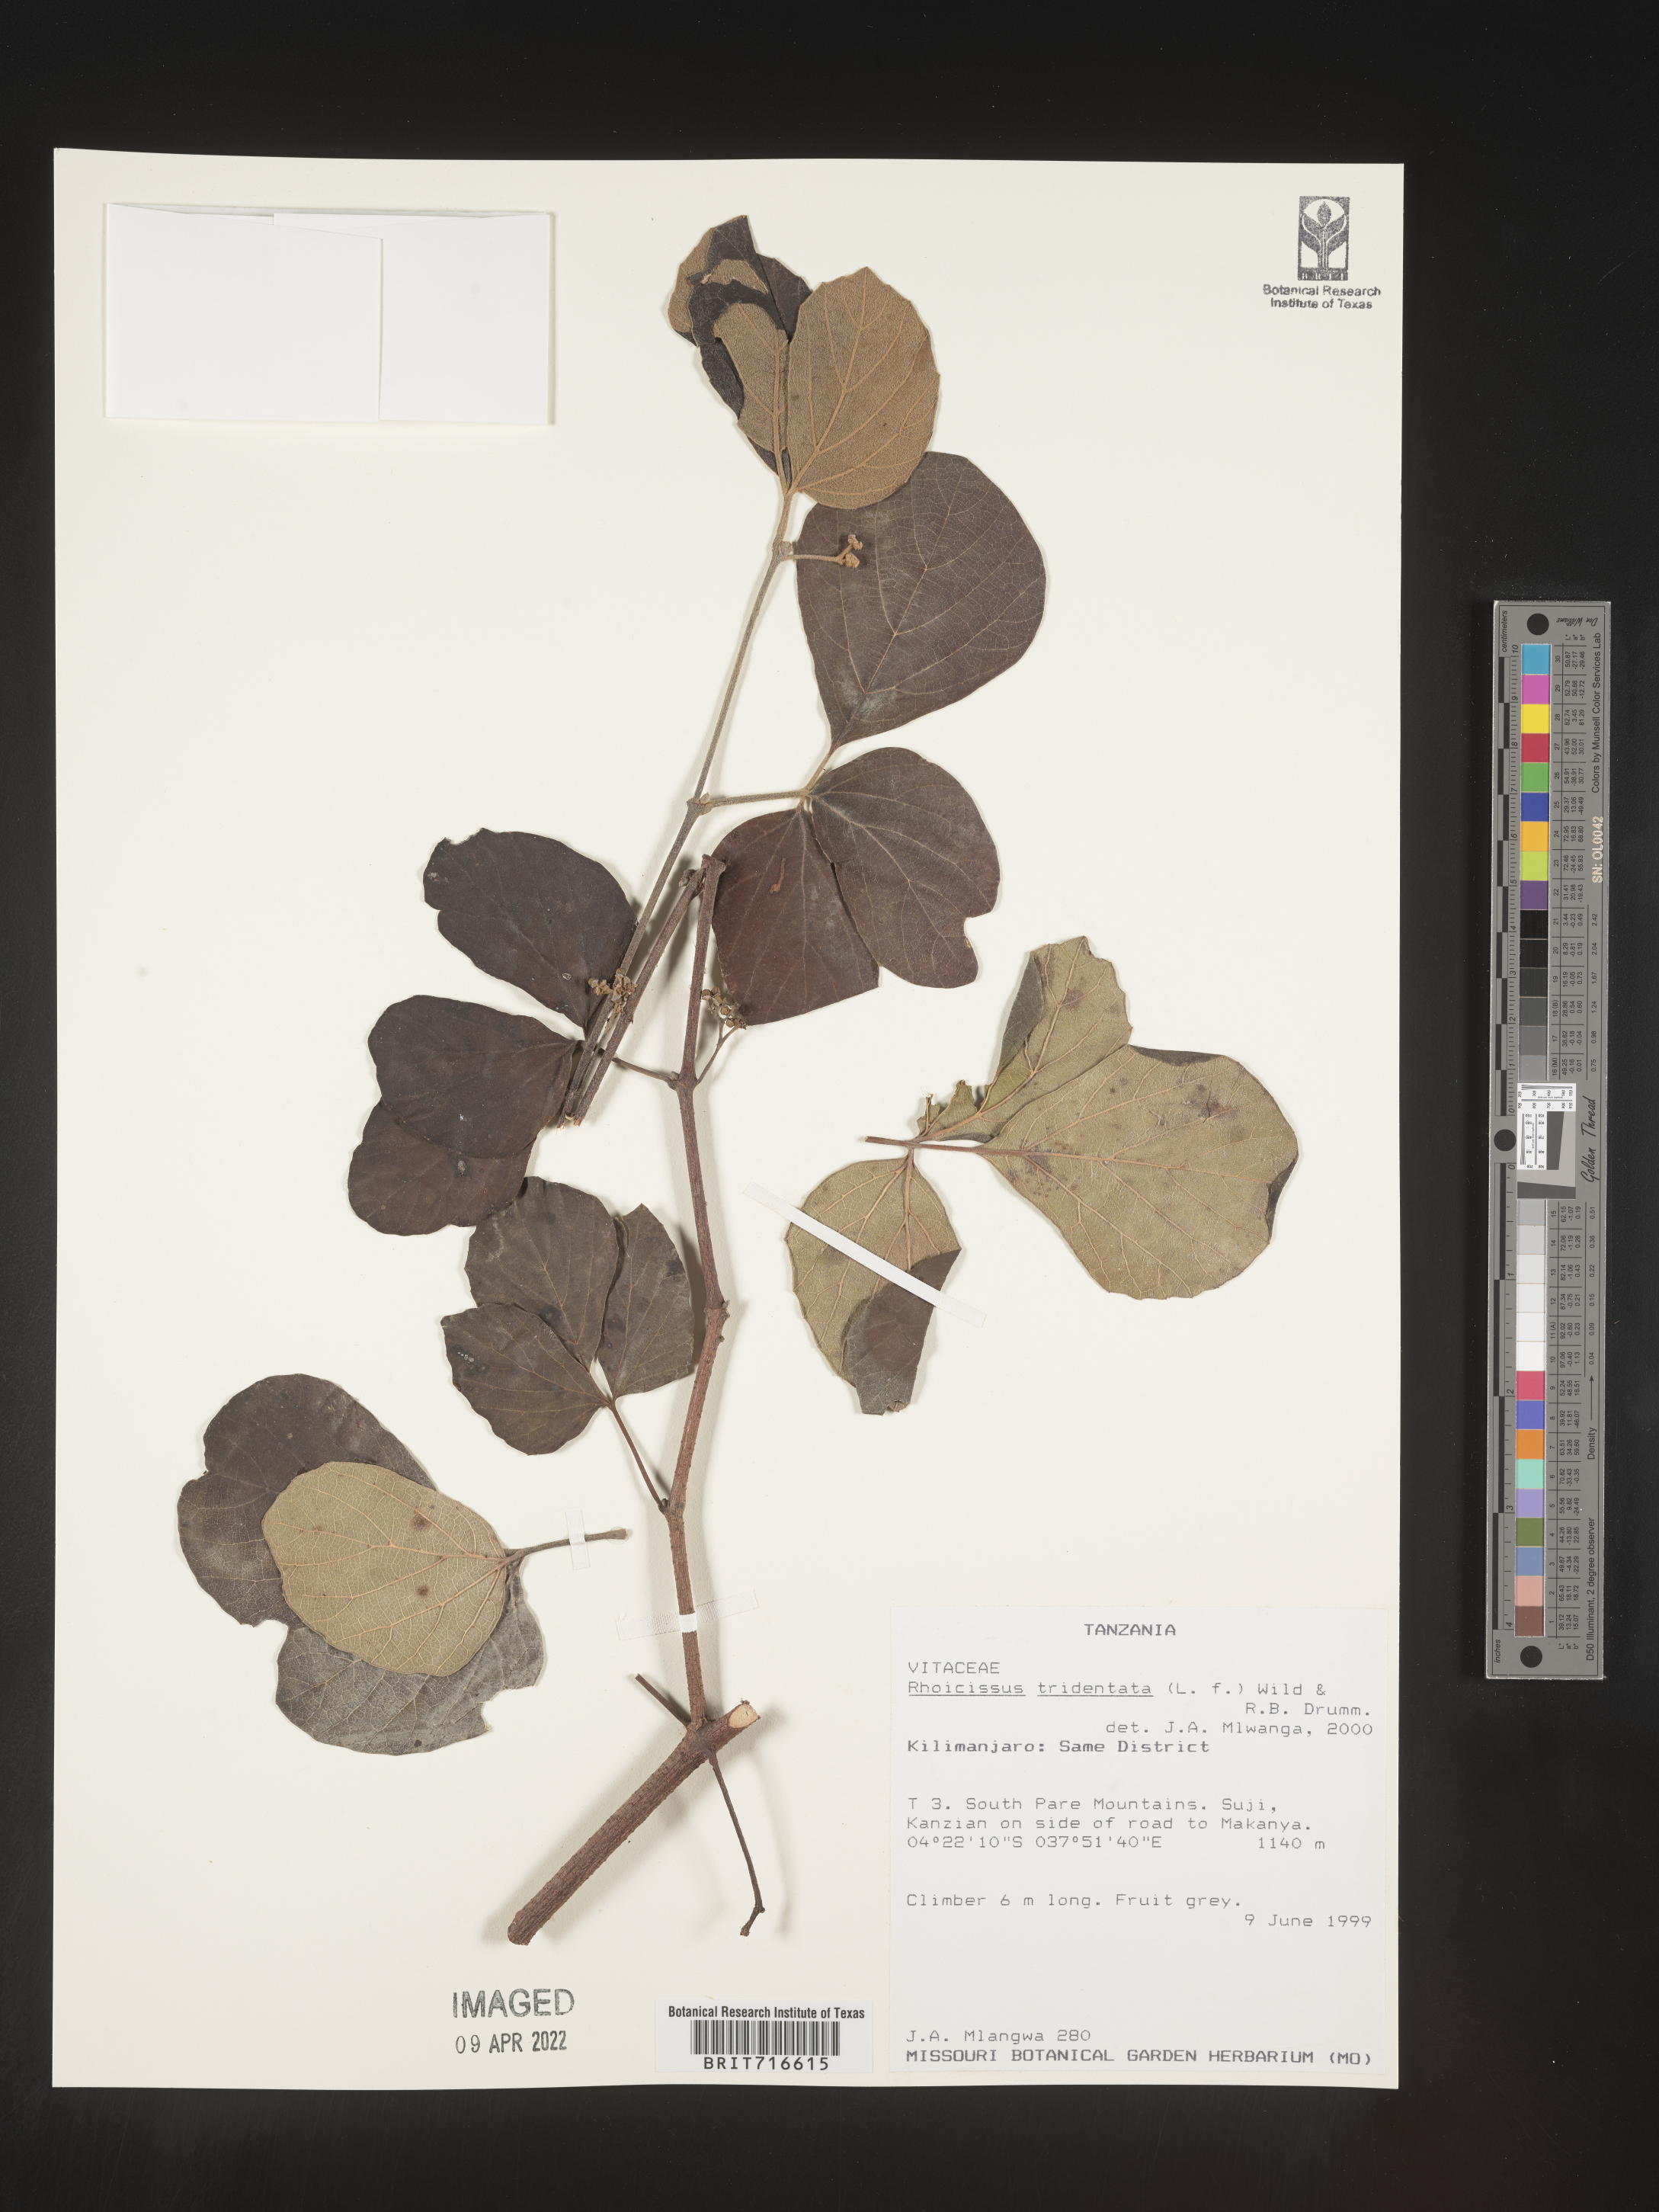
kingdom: Plantae
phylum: Tracheophyta
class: Magnoliopsida
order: Vitales
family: Vitaceae
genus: Rhoicissus
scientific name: Rhoicissus tridentata
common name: Common forest grape
